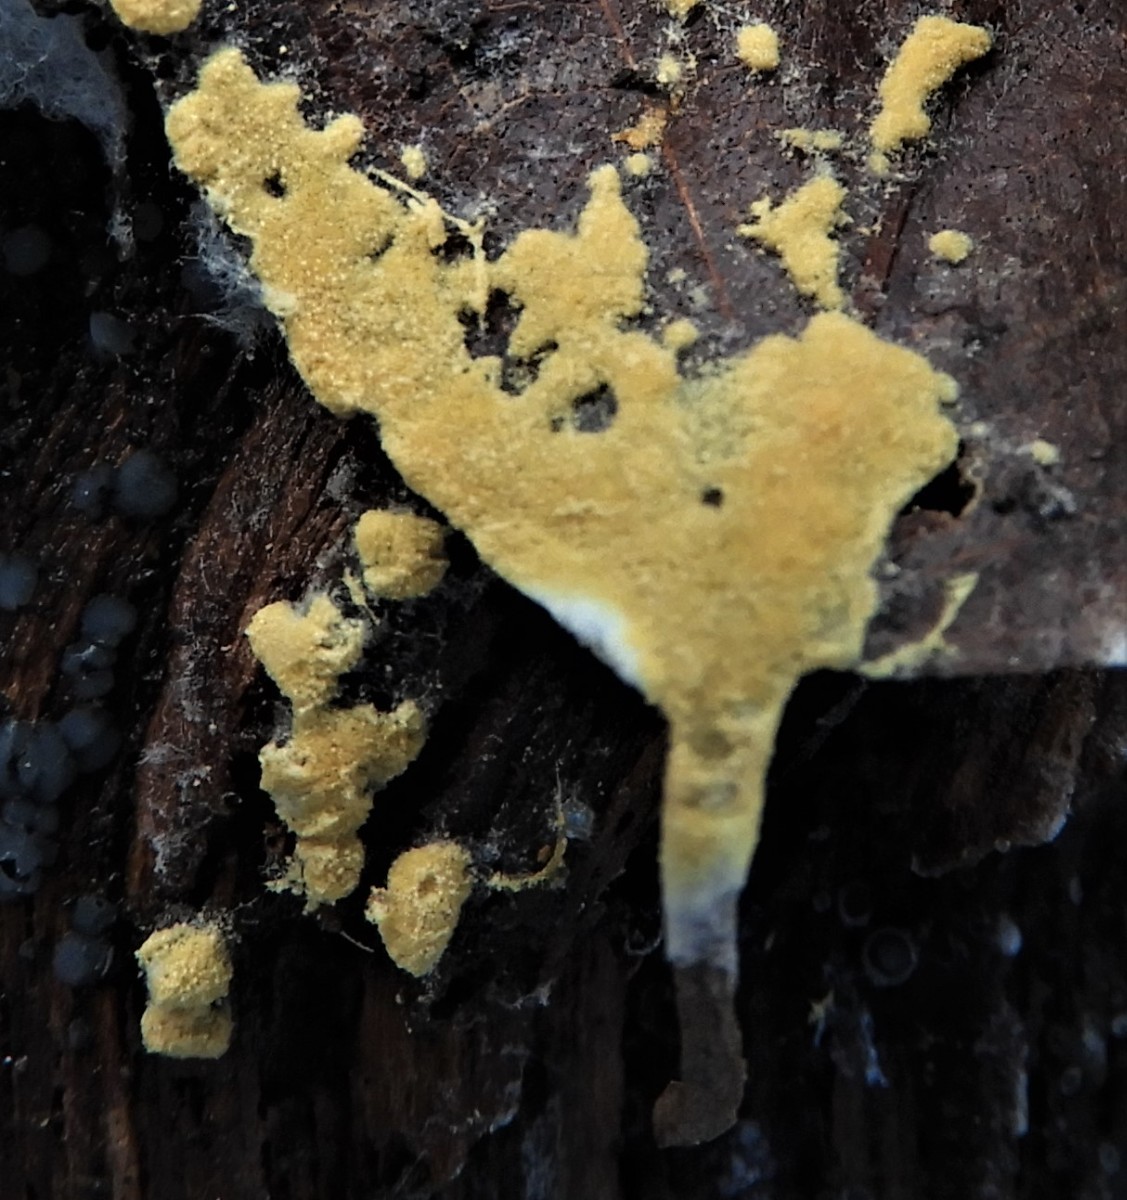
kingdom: Fungi
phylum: Basidiomycota
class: Agaricomycetes
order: Cantharellales
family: Botryobasidiaceae
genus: Botryobasidium
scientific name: Botryobasidium aureum
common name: gylden spindhinde
